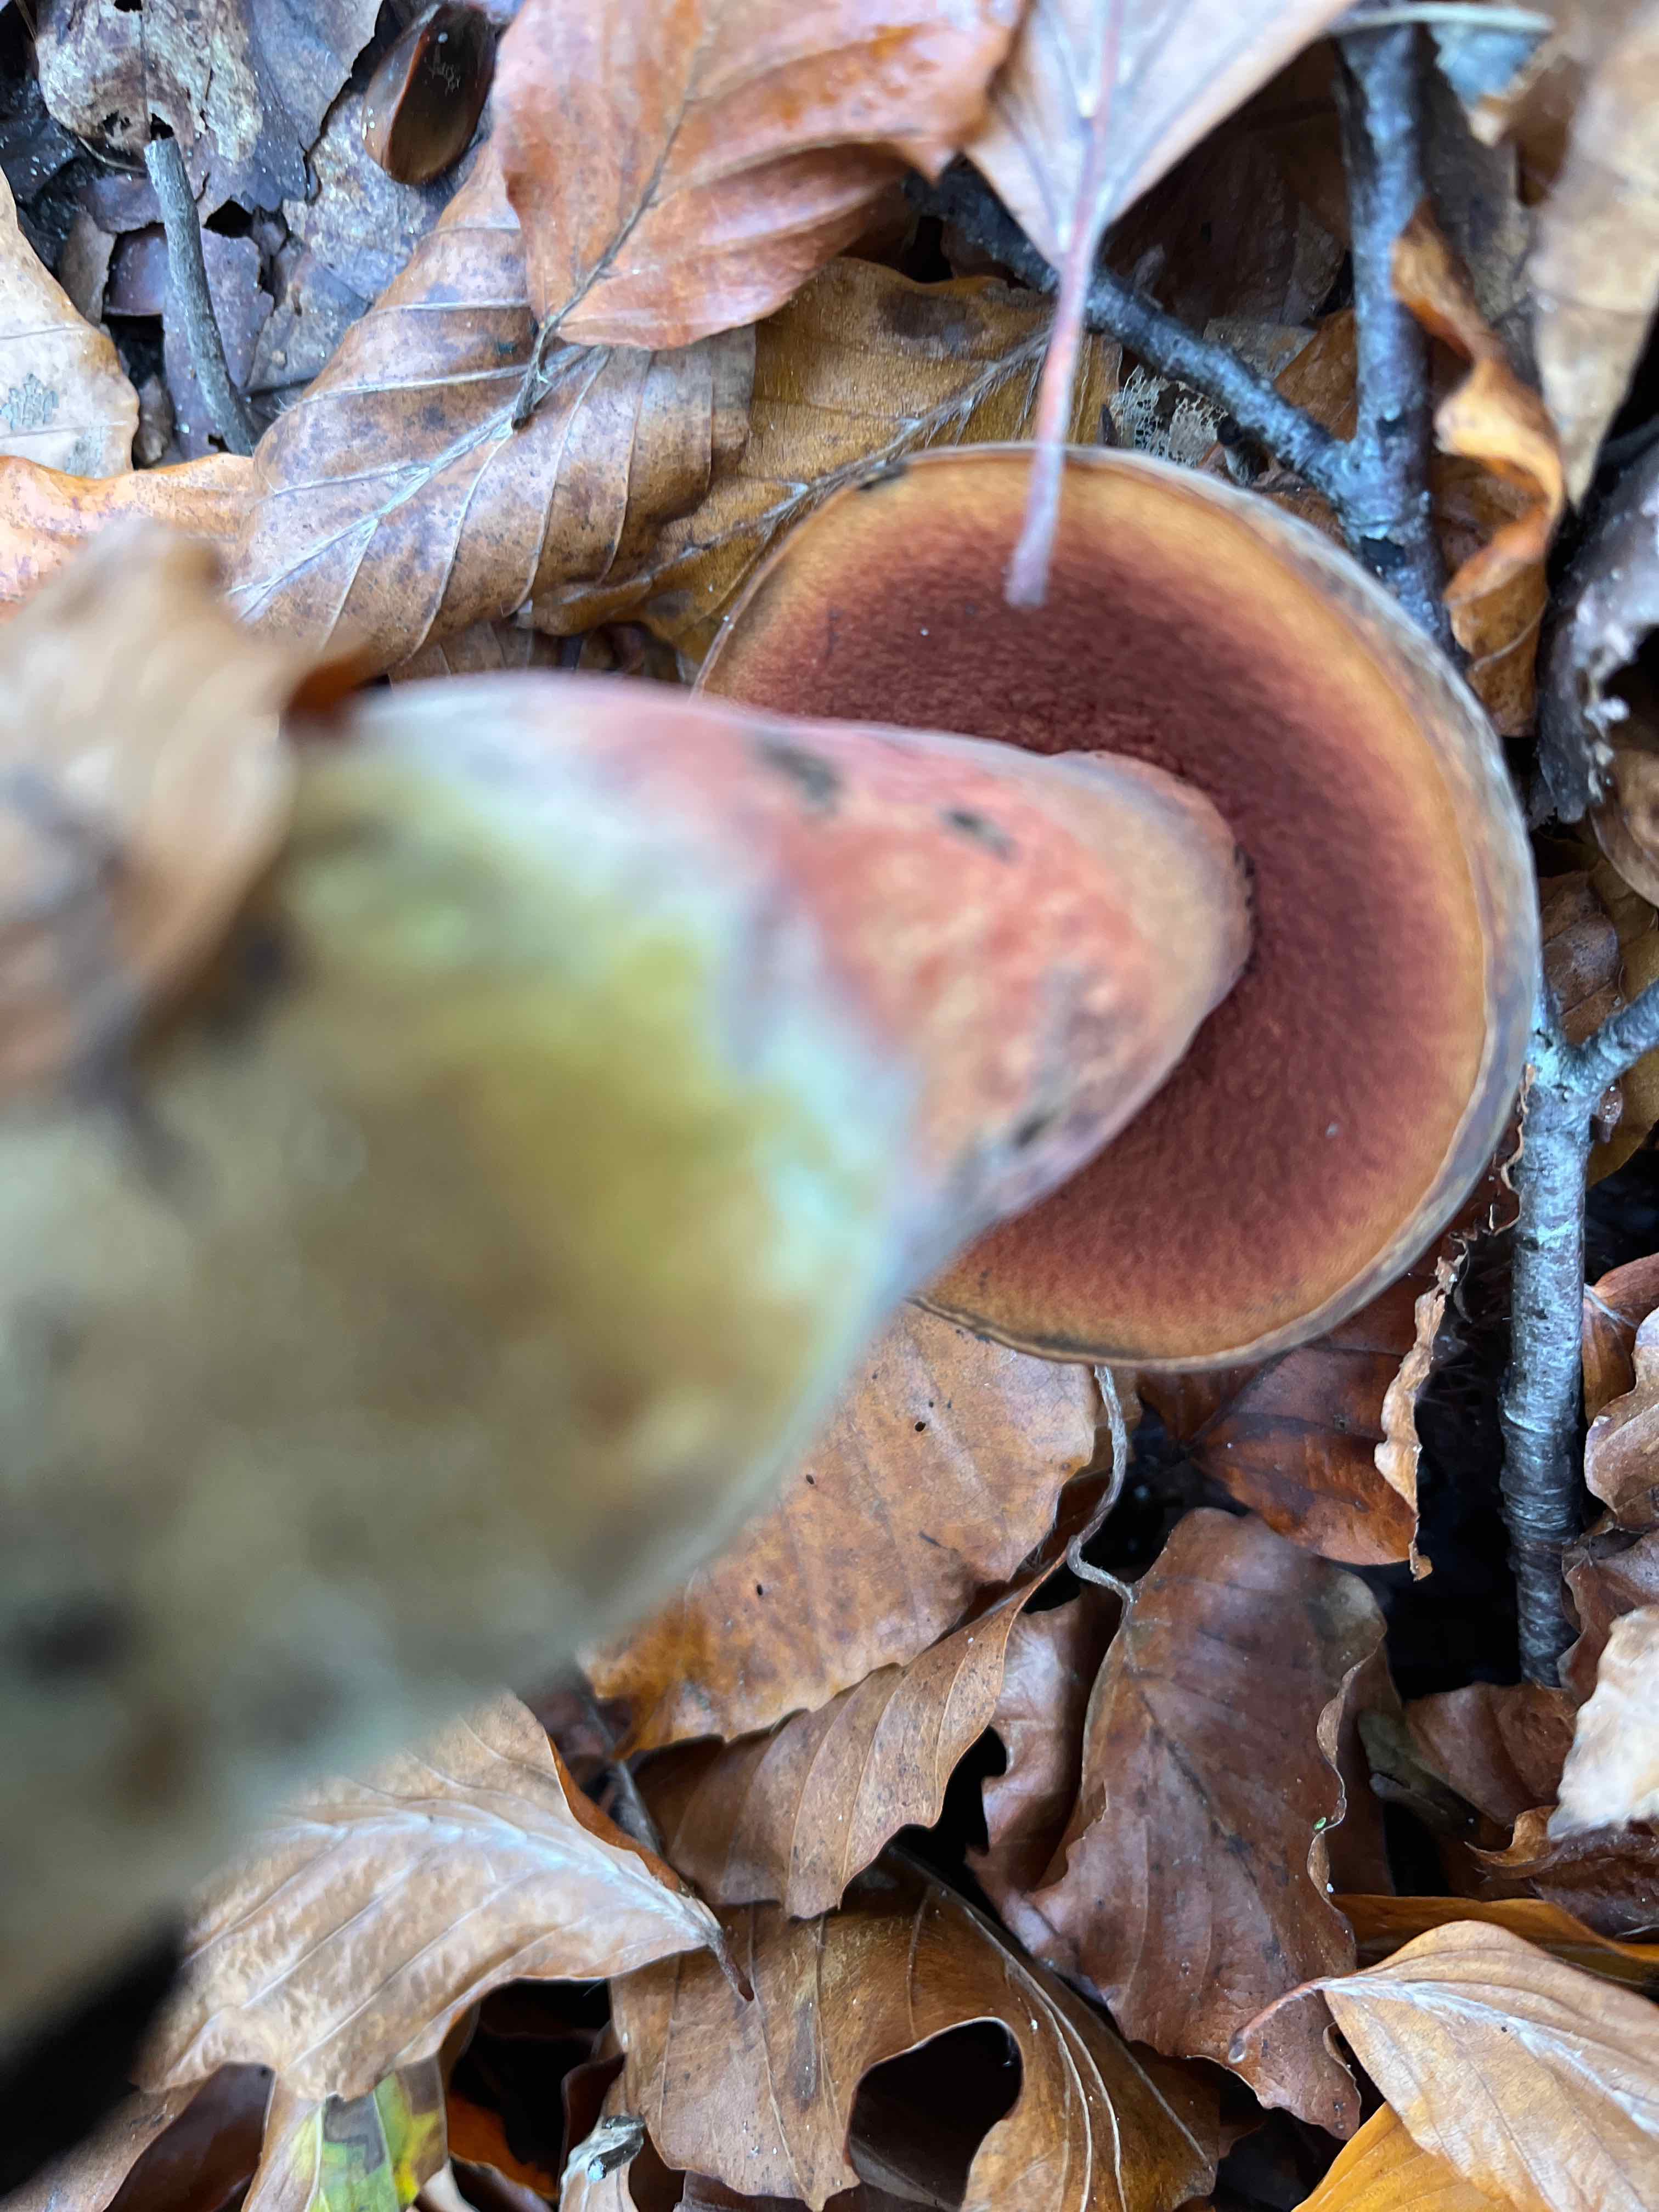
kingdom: Fungi
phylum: Basidiomycota
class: Agaricomycetes
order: Boletales
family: Boletaceae
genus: Neoboletus
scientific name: Neoboletus erythropus
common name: punktstokket indigorørhat
